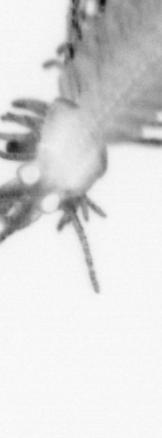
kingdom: Animalia
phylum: Annelida
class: Polychaeta
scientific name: Polychaeta
